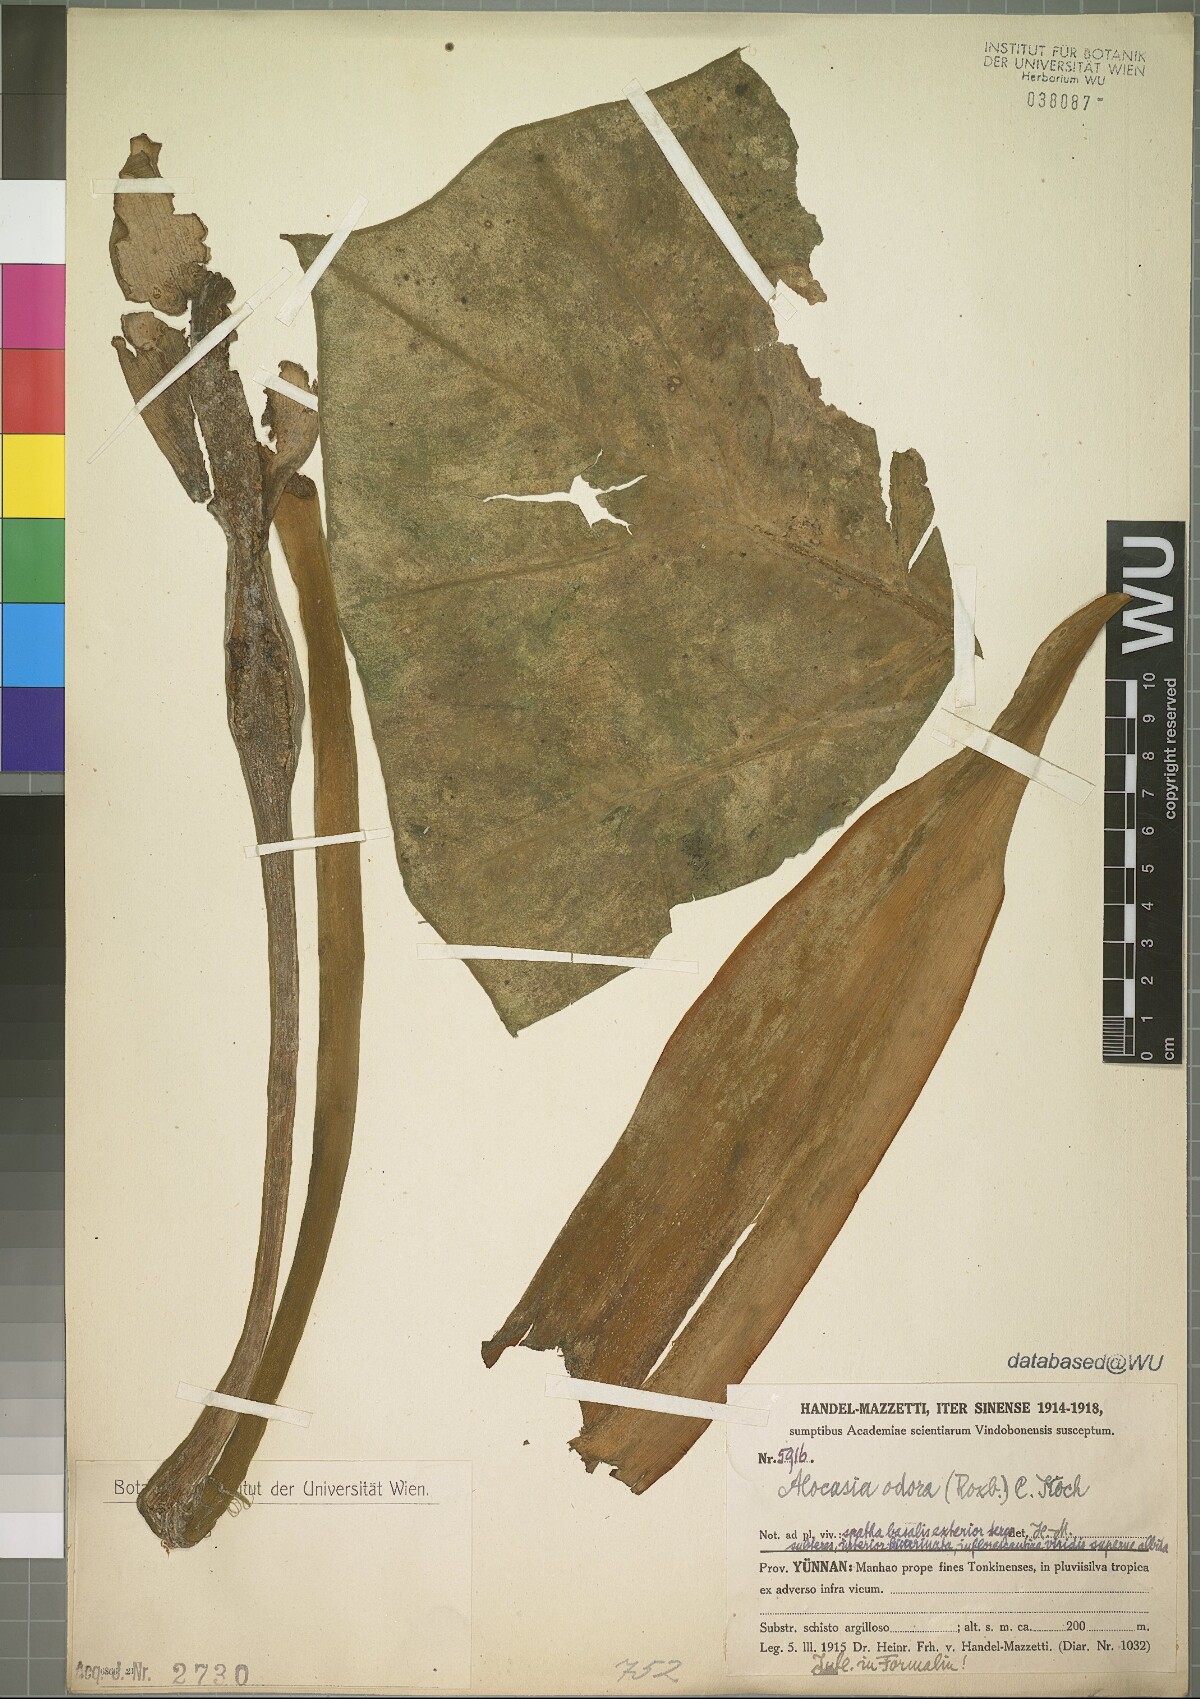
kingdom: Plantae
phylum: Tracheophyta
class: Liliopsida
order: Alismatales
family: Araceae
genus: Alocasia
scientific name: Alocasia odora
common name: Asian taro
